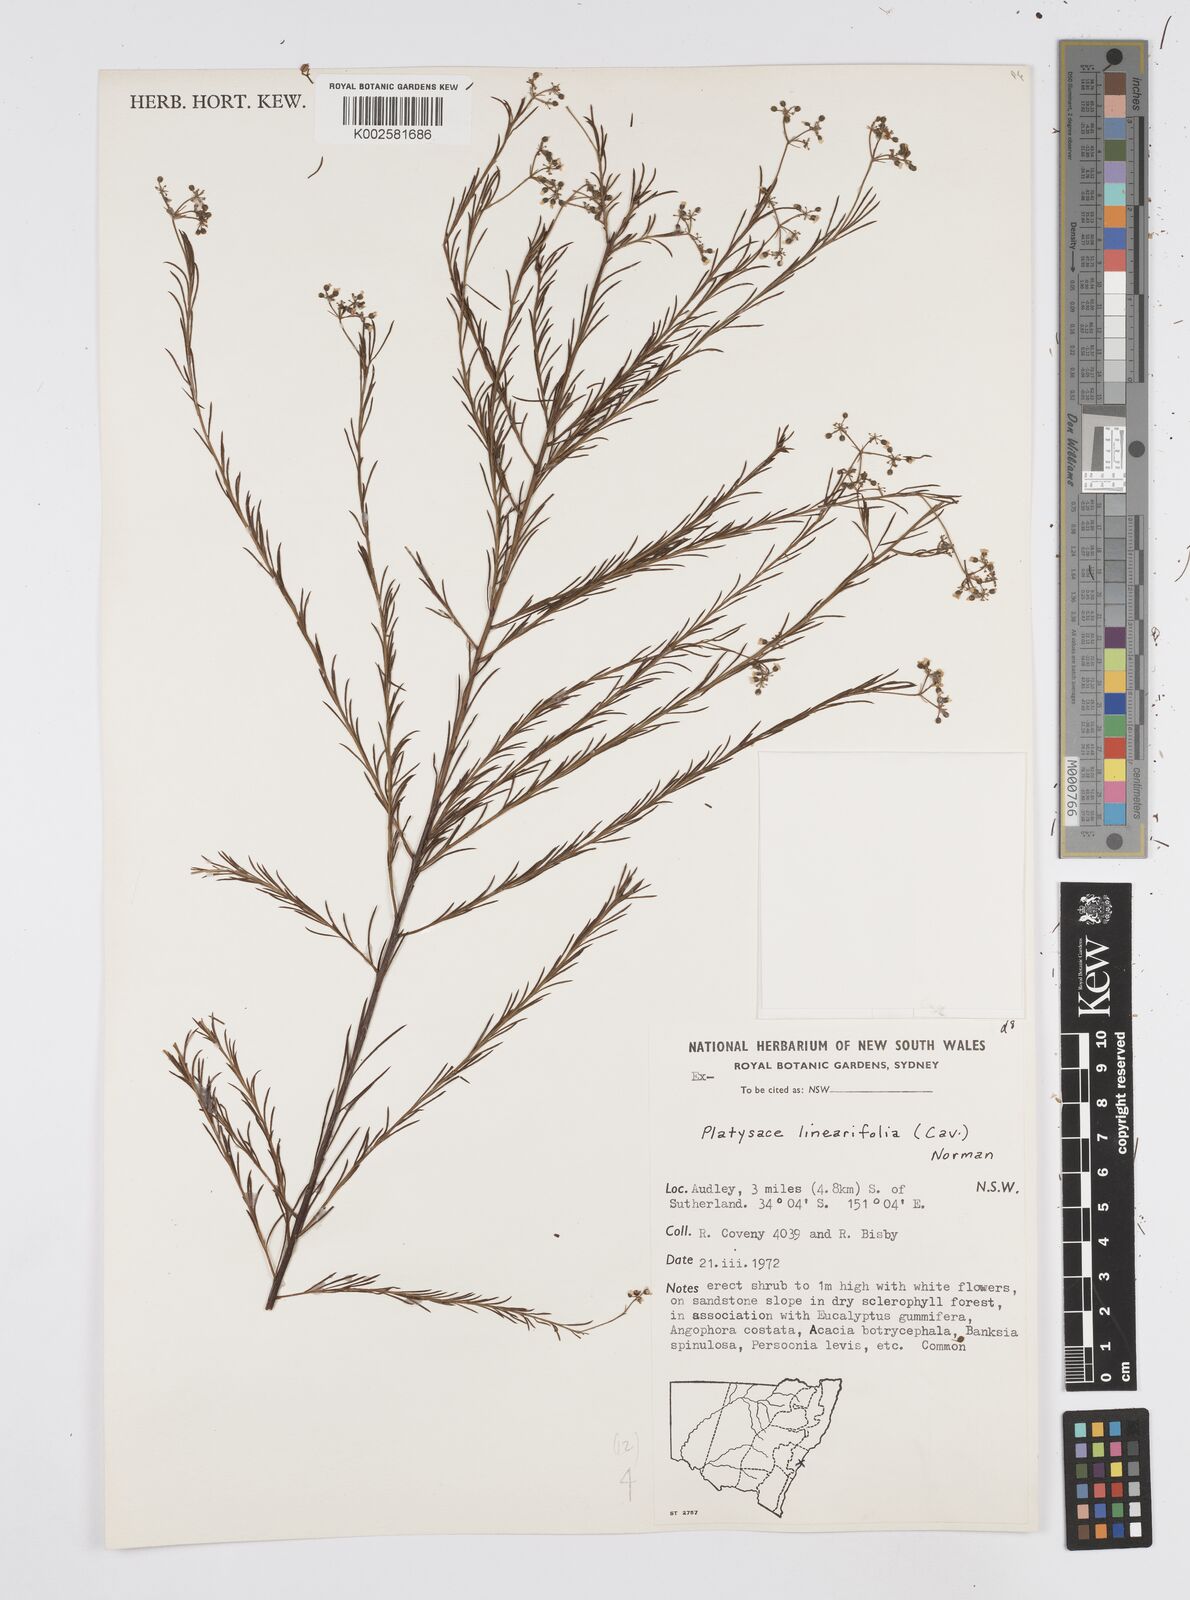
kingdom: Plantae
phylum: Tracheophyta
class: Magnoliopsida
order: Apiales
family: Apiaceae
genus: Platysace
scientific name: Platysace linearifolia
